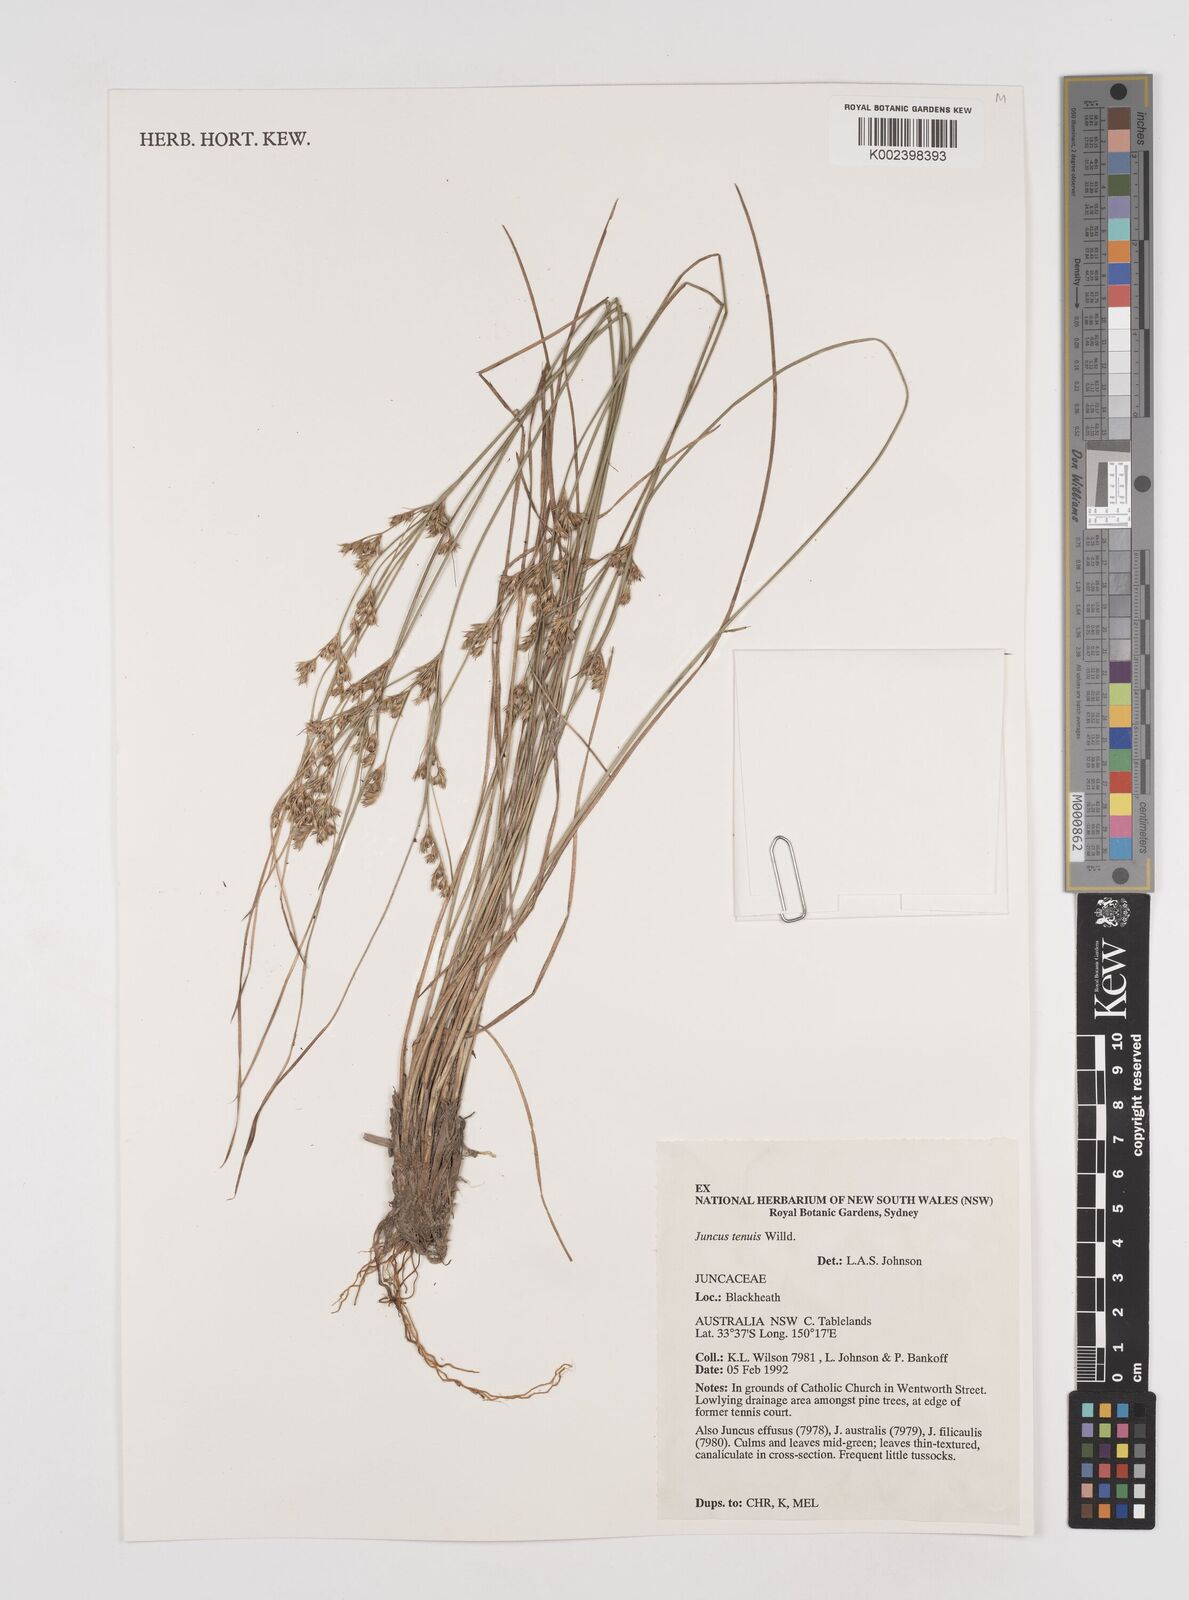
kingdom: Plantae
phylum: Tracheophyta
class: Liliopsida
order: Poales
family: Juncaceae
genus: Juncus
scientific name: Juncus tenuis
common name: Slender rush
